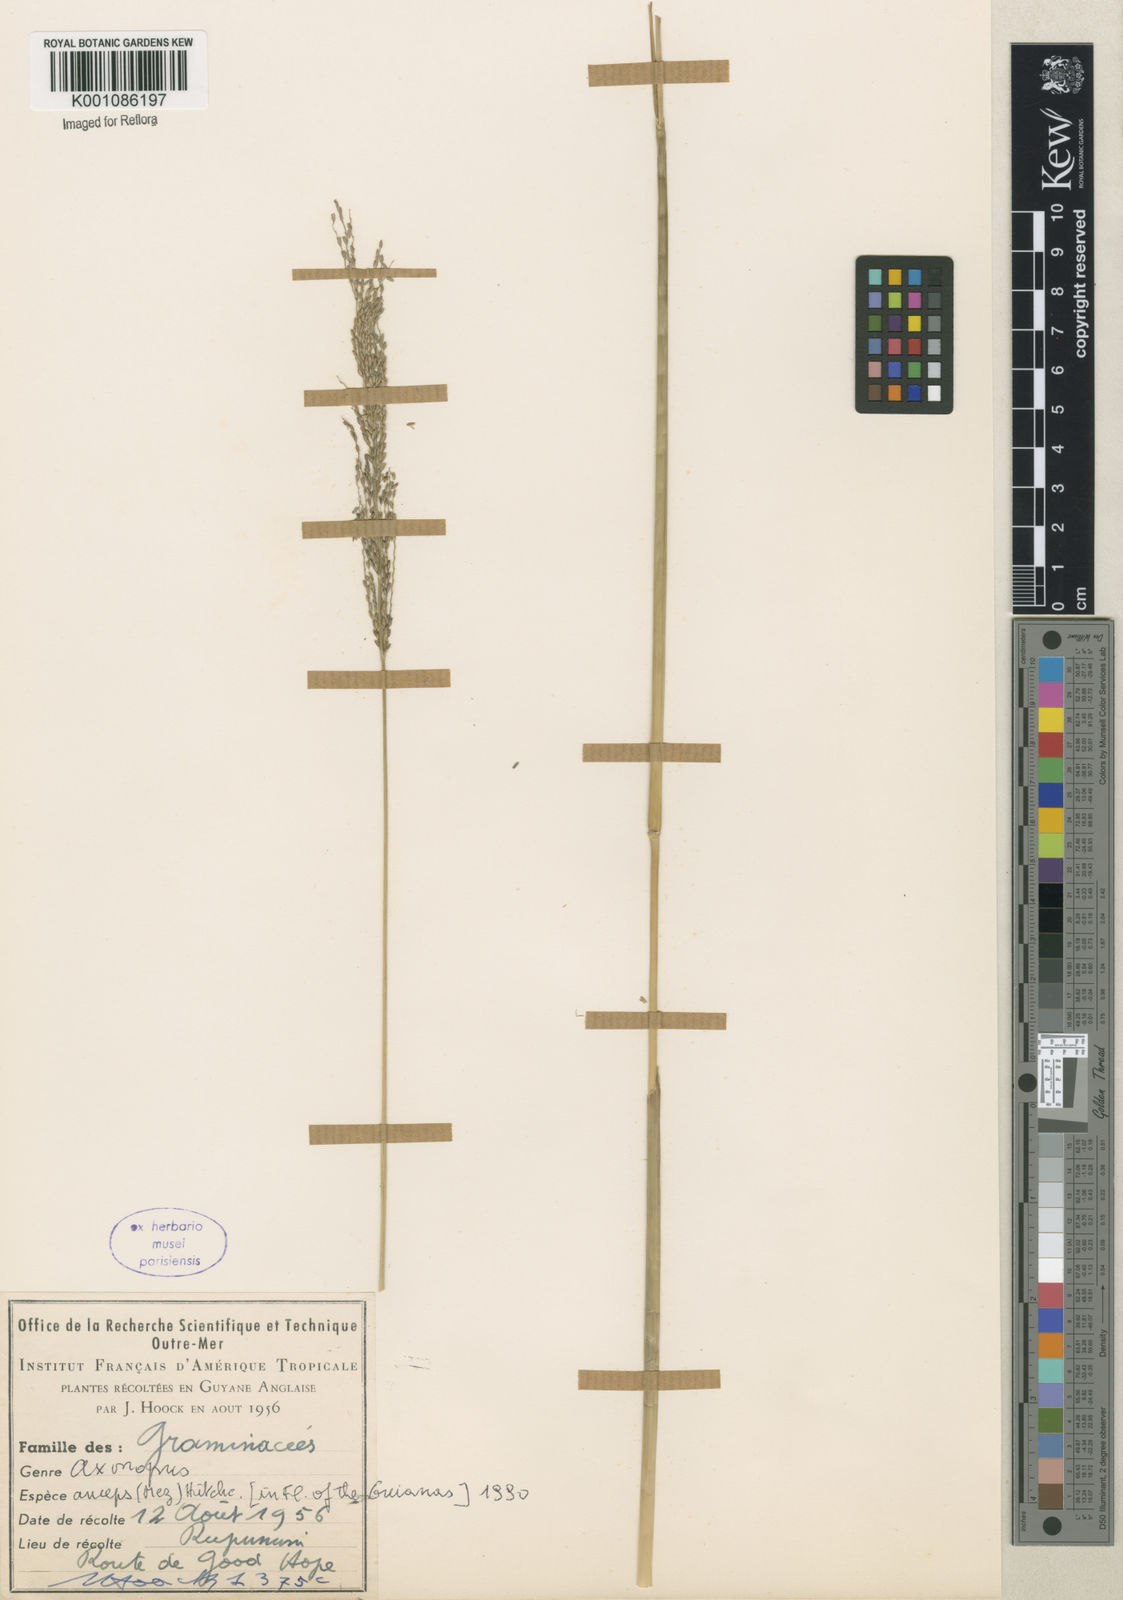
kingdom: Plantae
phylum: Tracheophyta
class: Liliopsida
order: Poales
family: Poaceae
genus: Axonopus
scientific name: Axonopus
